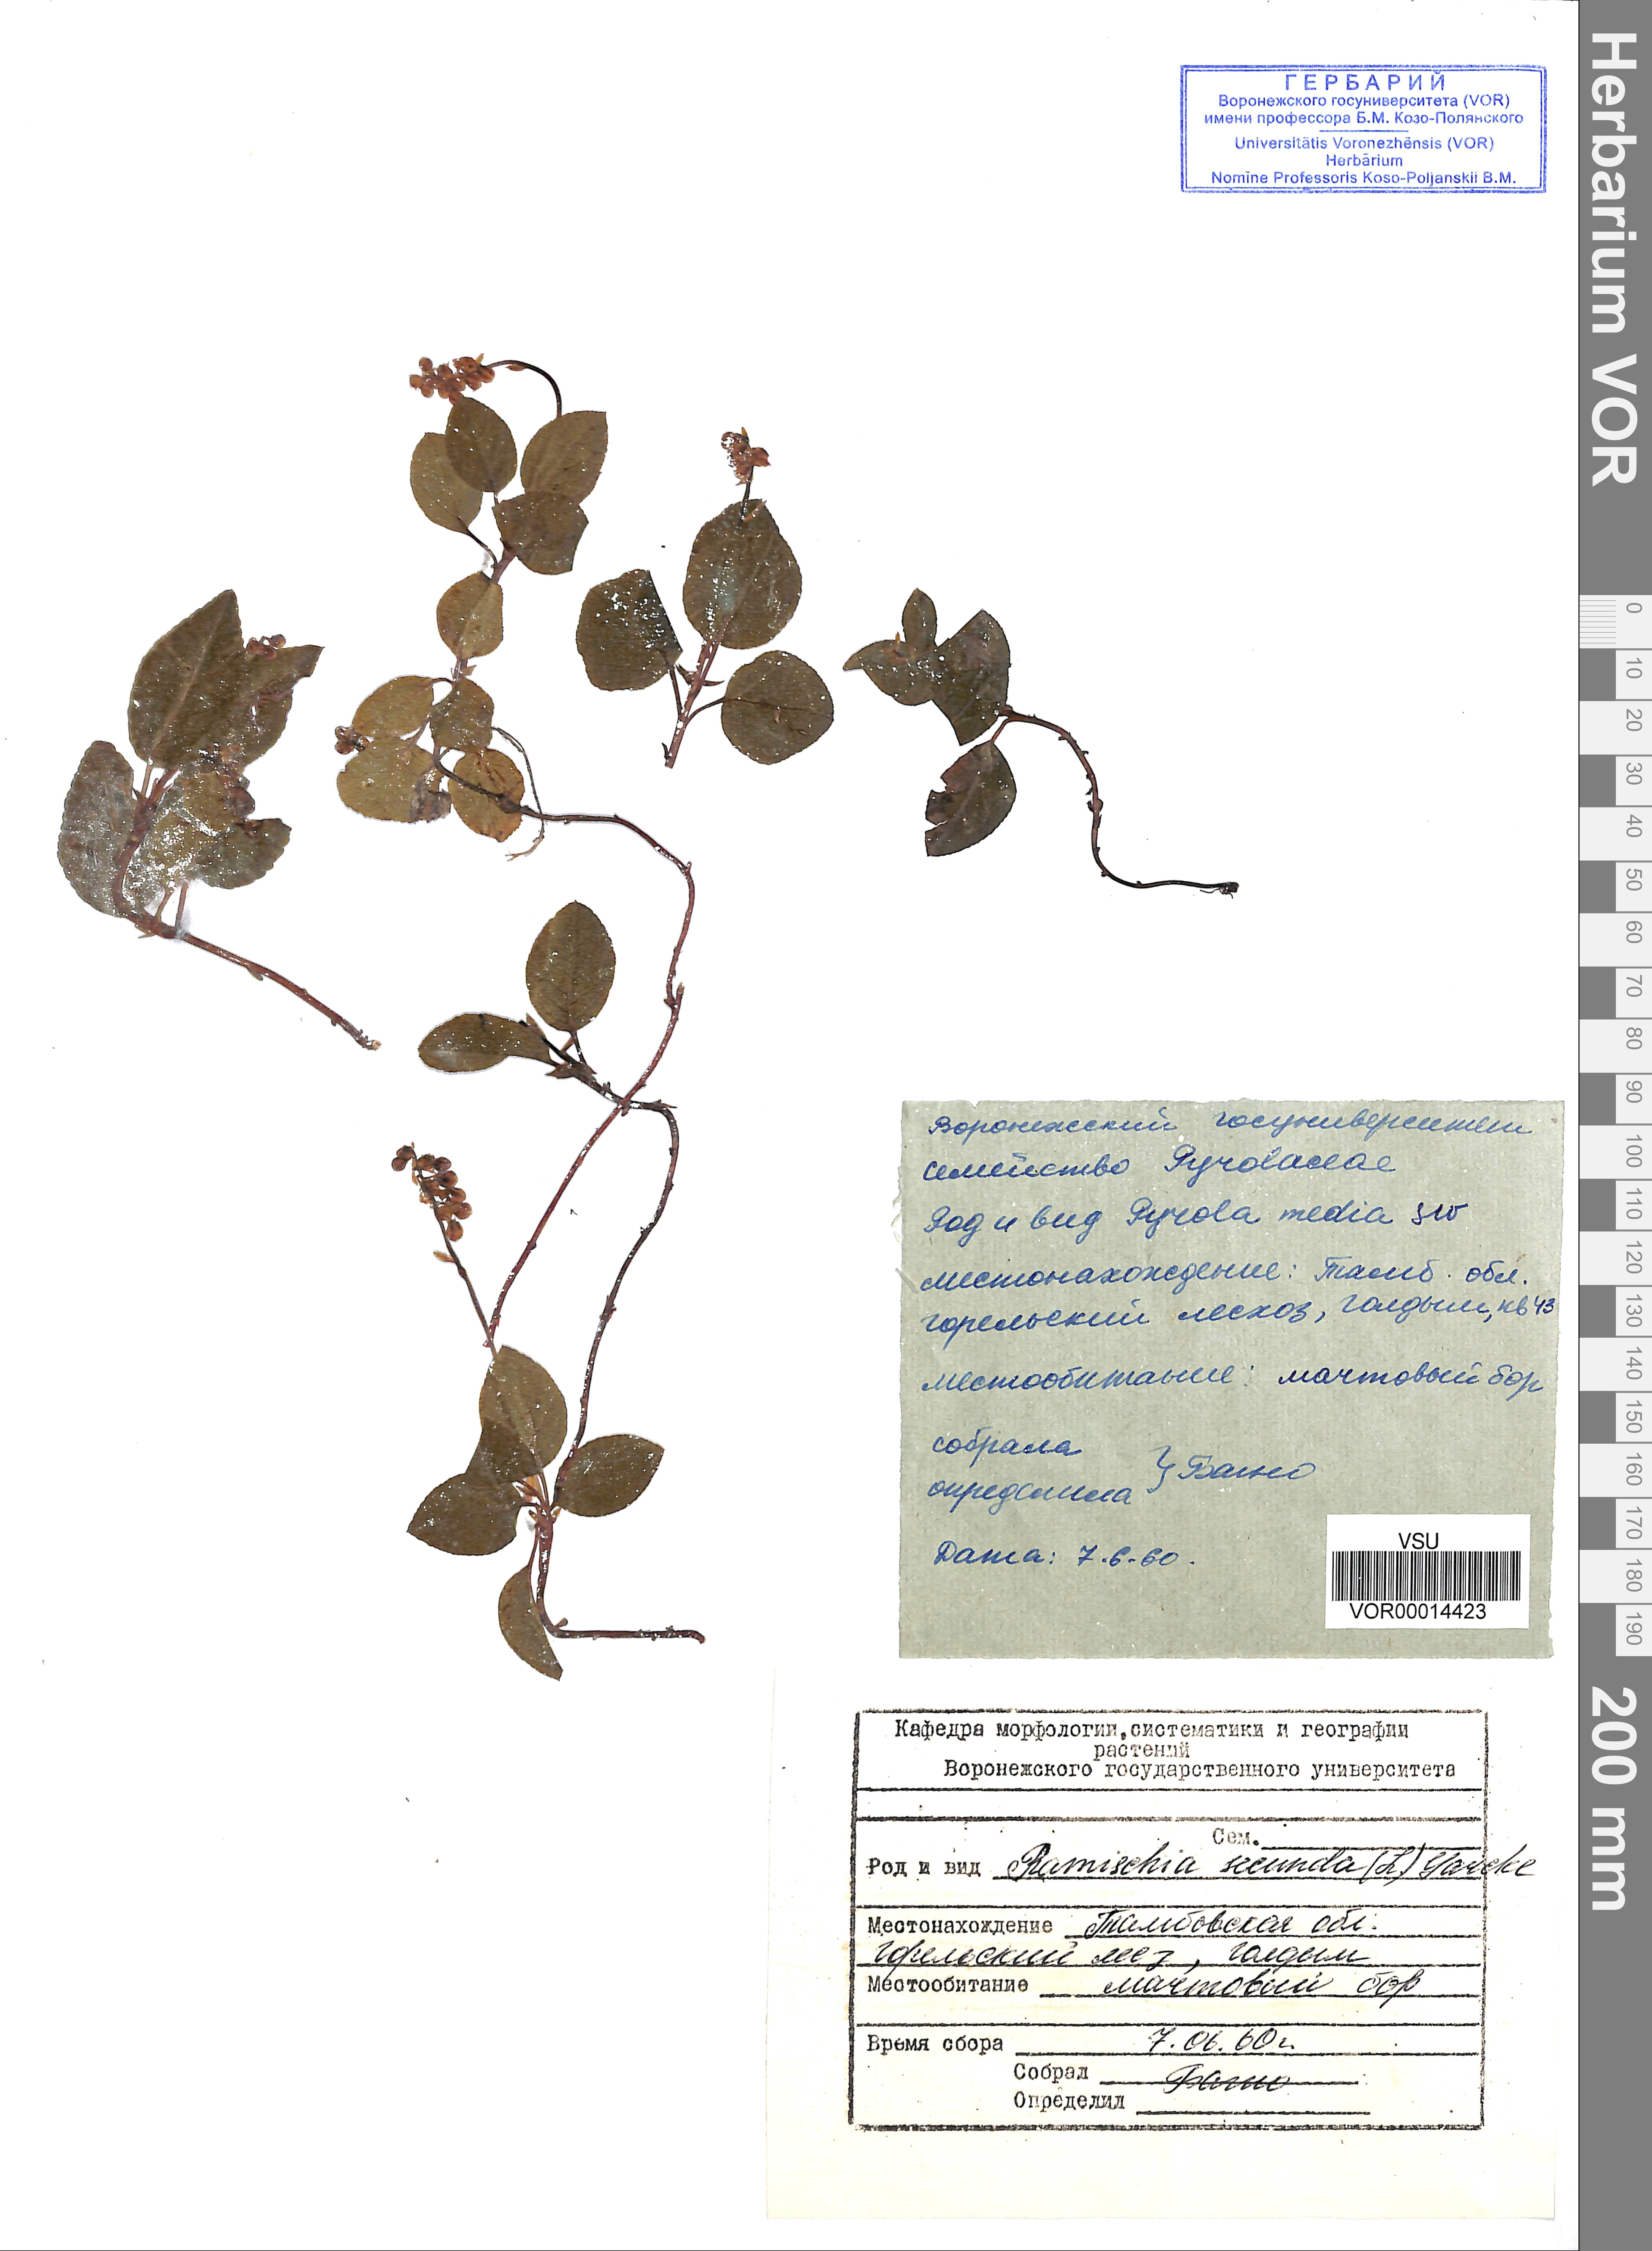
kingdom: Plantae
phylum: Tracheophyta
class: Magnoliopsida
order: Ericales
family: Ericaceae
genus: Orthilia
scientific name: Orthilia secunda
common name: One-sided orthilia
